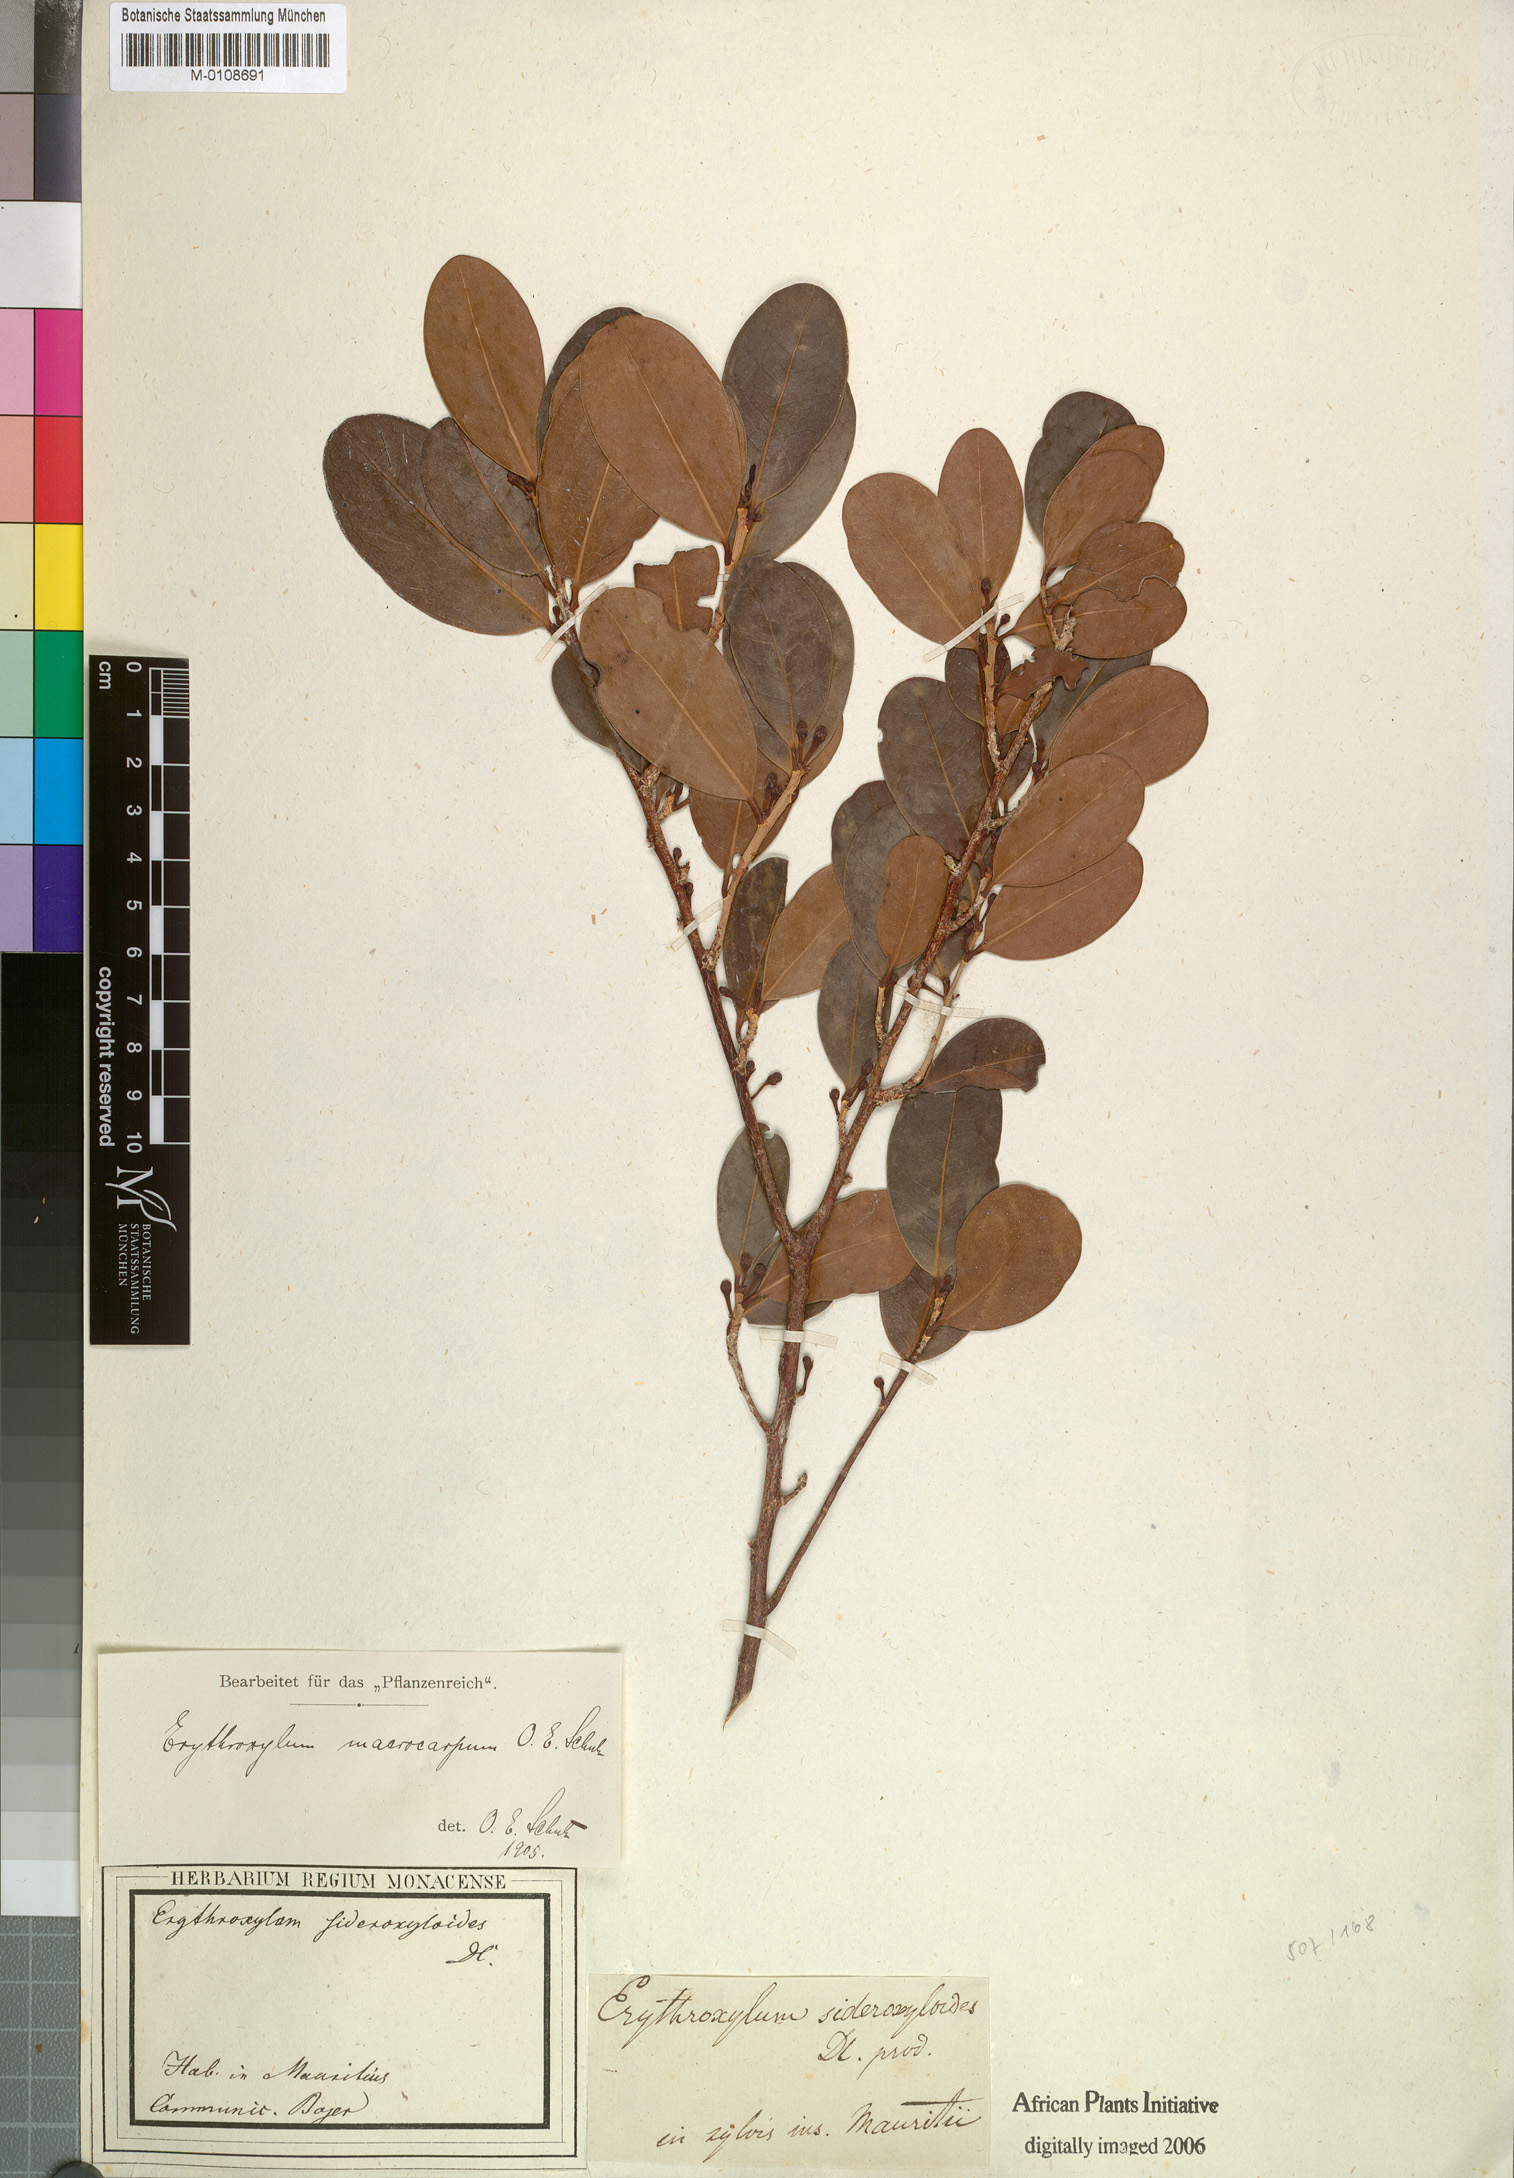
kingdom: Plantae
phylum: Tracheophyta
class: Magnoliopsida
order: Malpighiales
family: Erythroxylaceae
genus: Erythroxylum
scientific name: Erythroxylum macrocarpum
